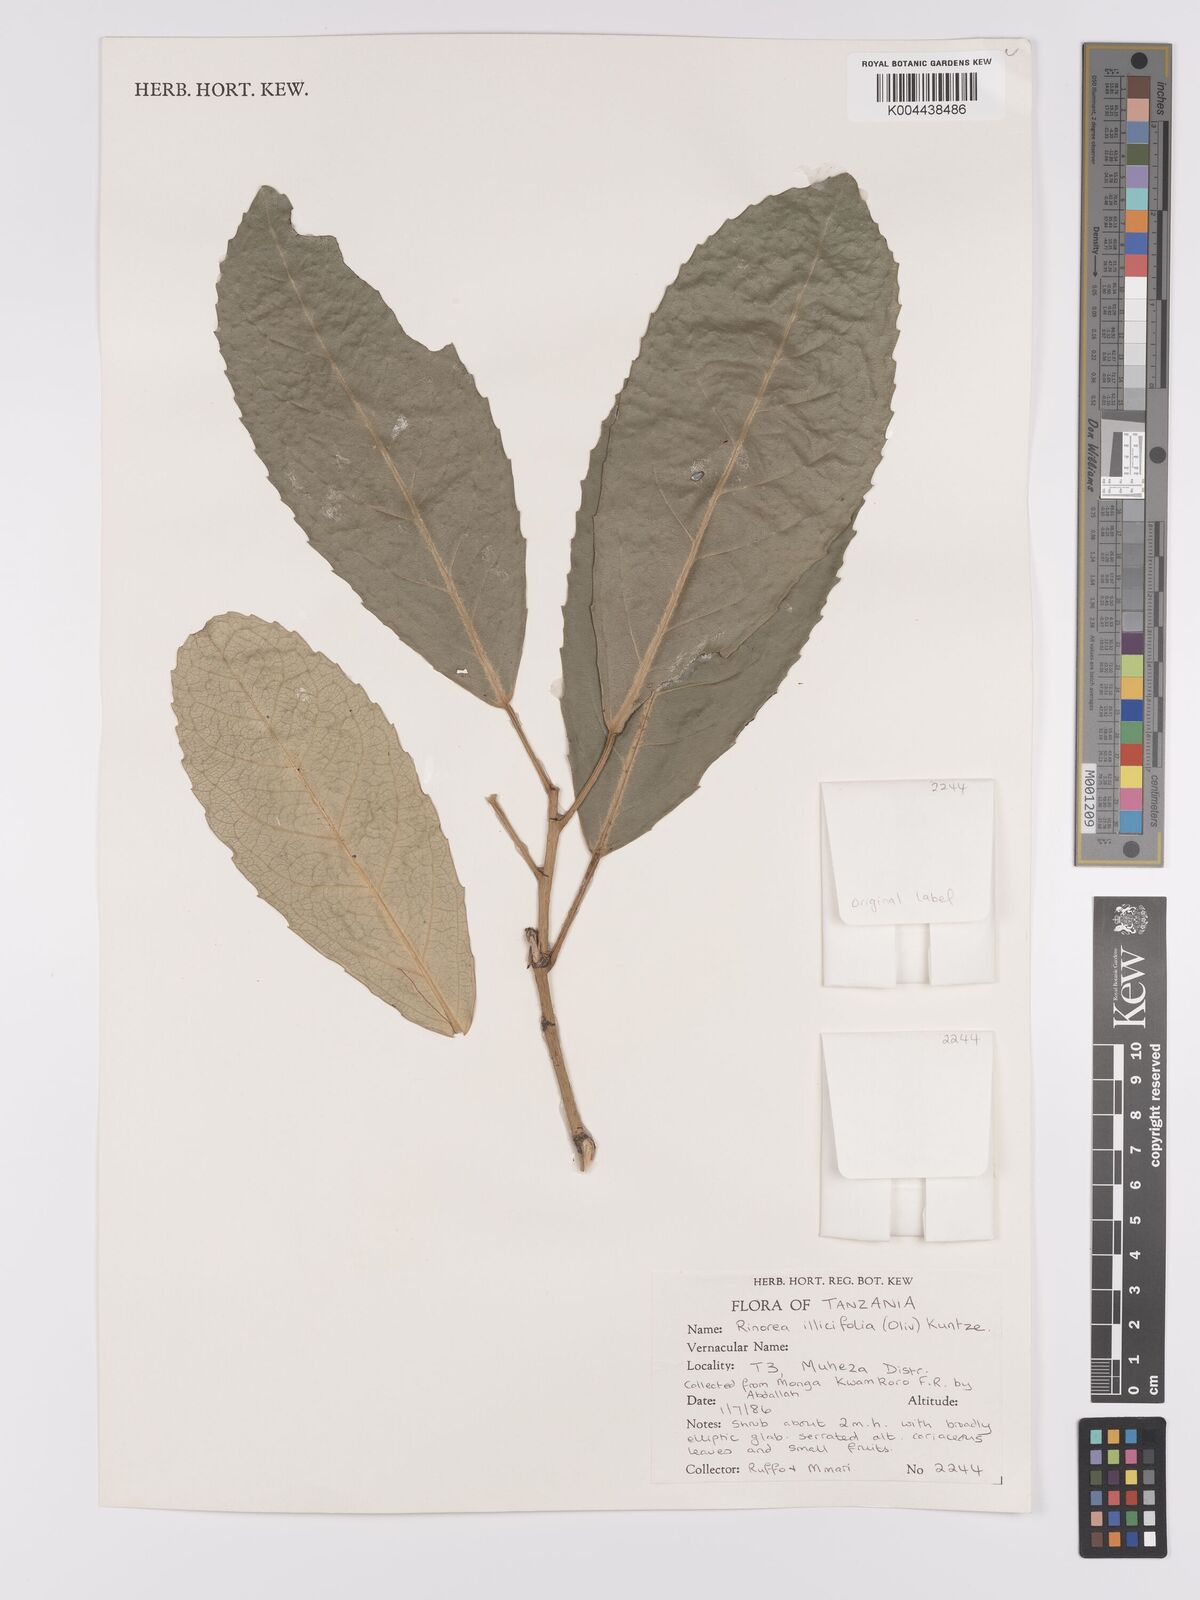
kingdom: Plantae
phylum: Tracheophyta
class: Magnoliopsida
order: Malpighiales
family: Violaceae
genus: Rinorea
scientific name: Rinorea ilicifolia
